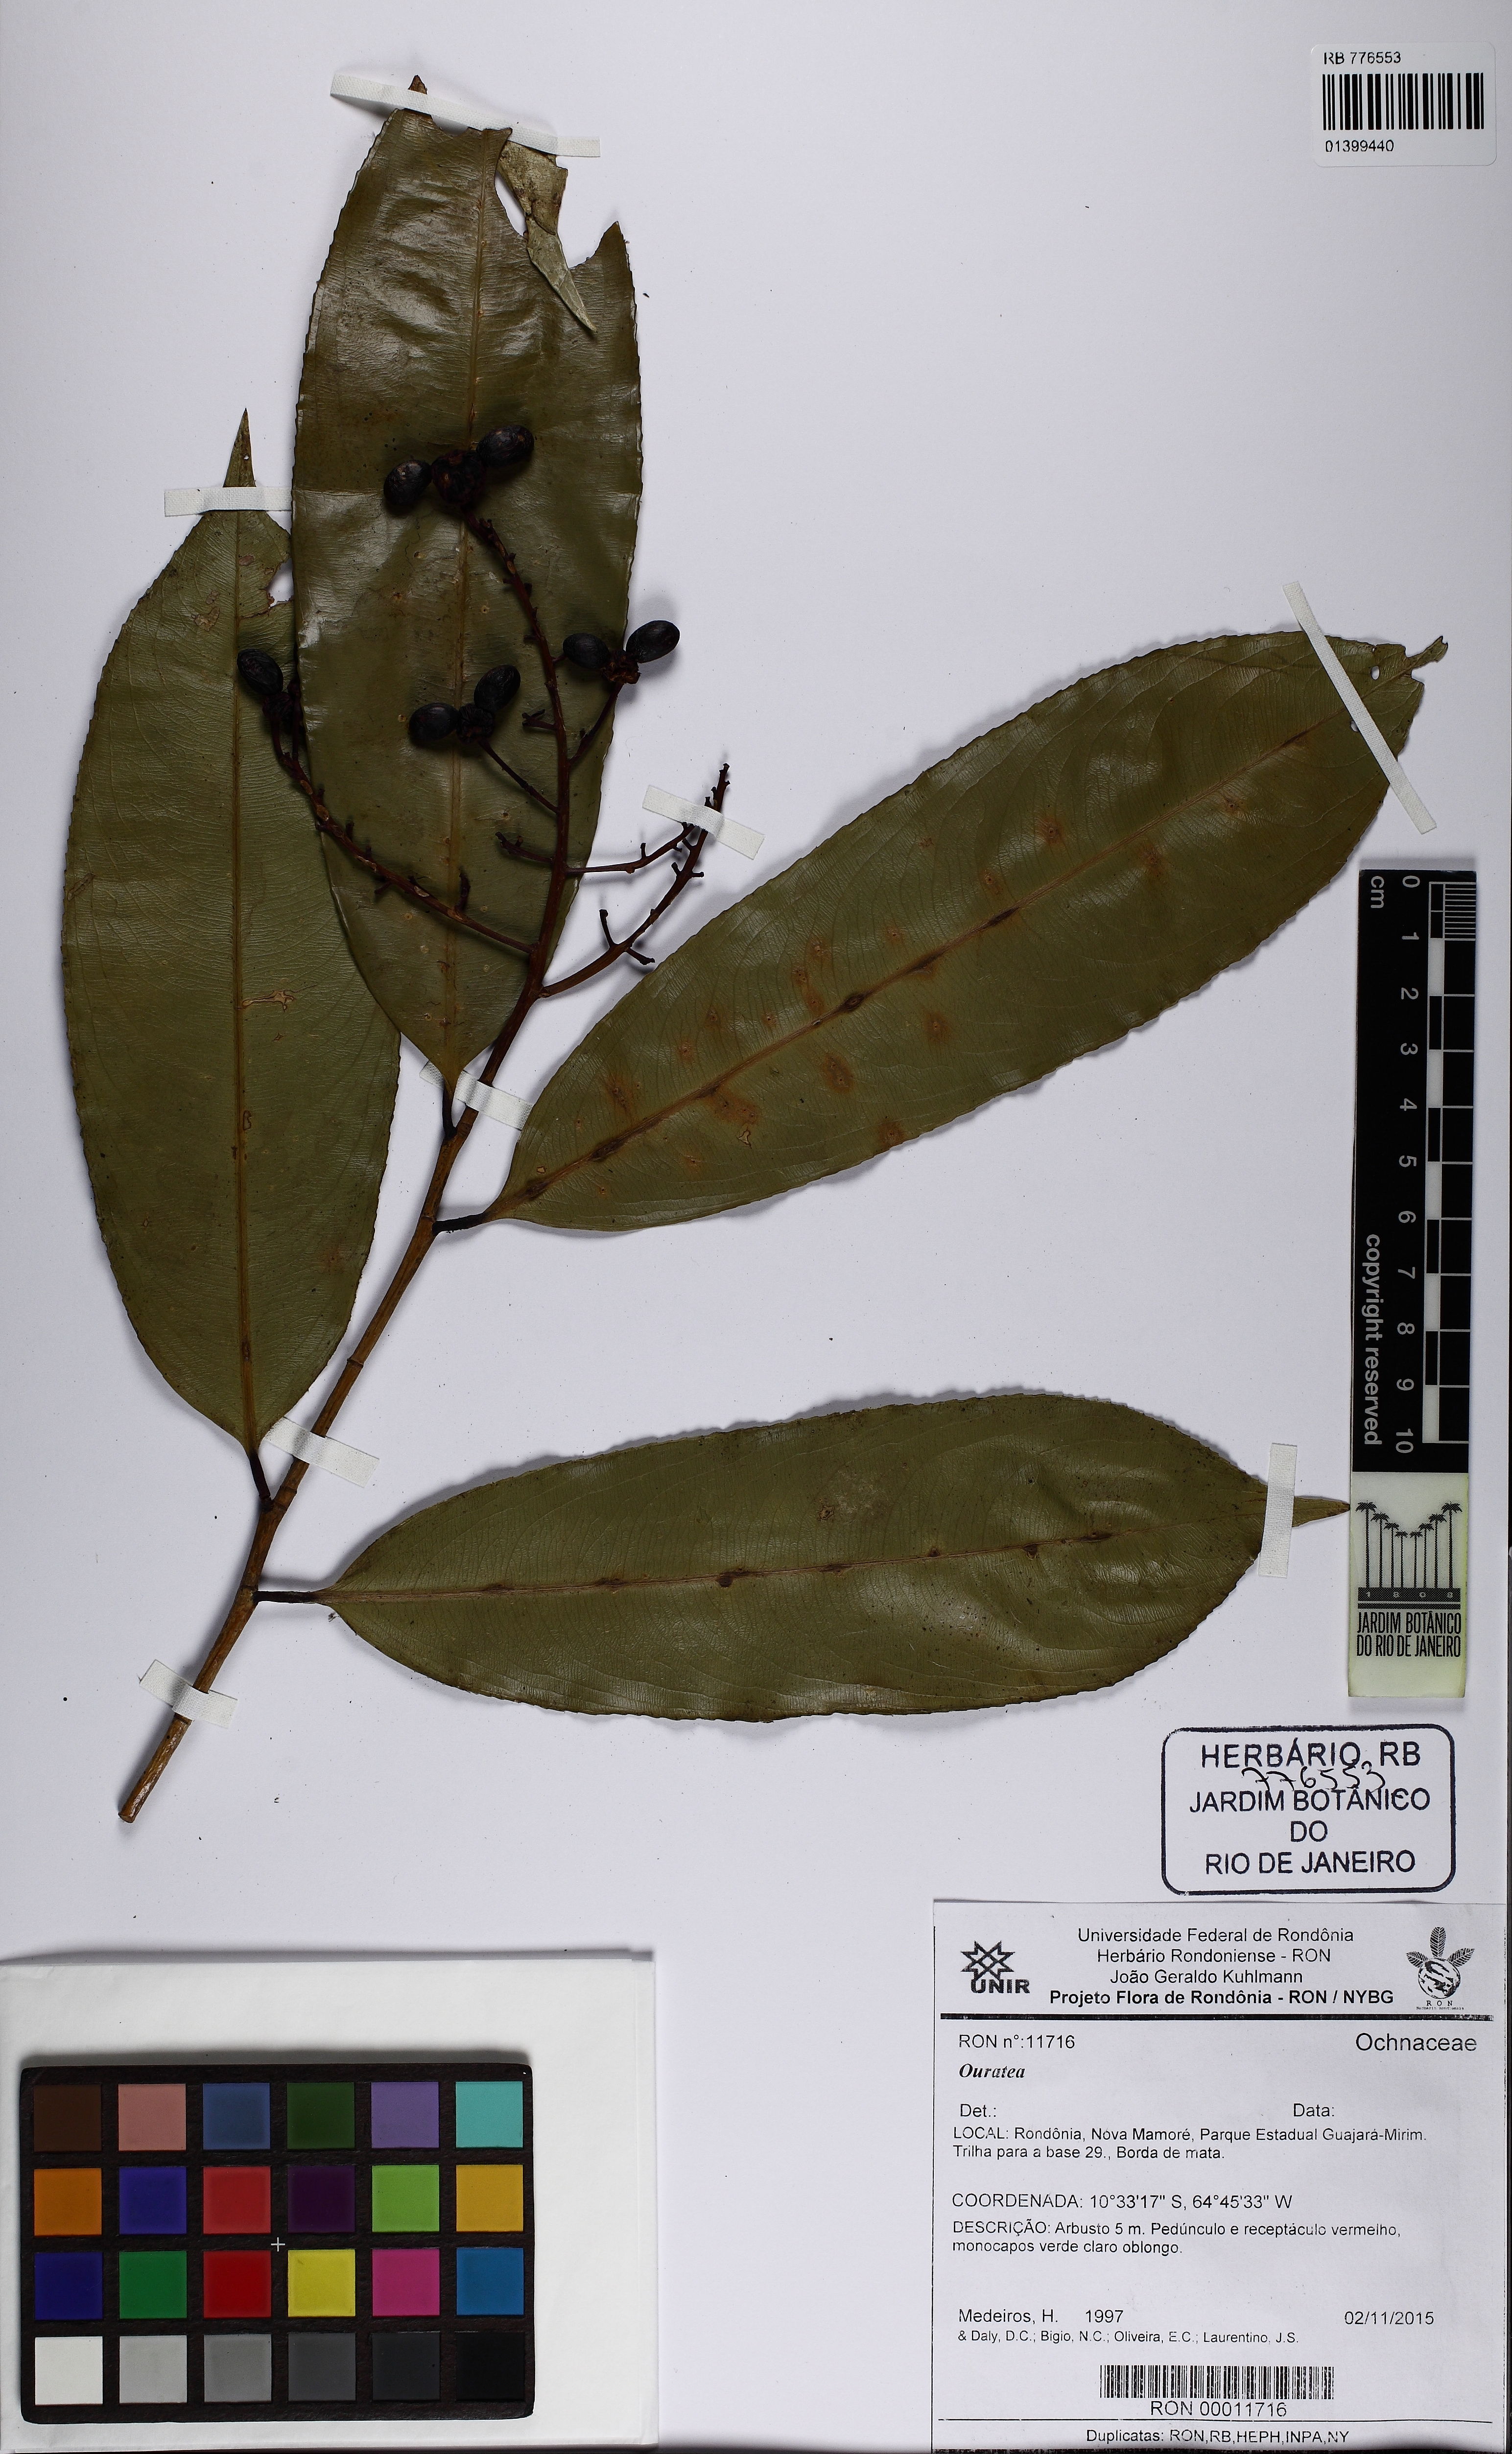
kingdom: Plantae
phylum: Tracheophyta
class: Magnoliopsida
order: Malpighiales
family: Ochnaceae
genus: Ouratea
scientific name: Ouratea
